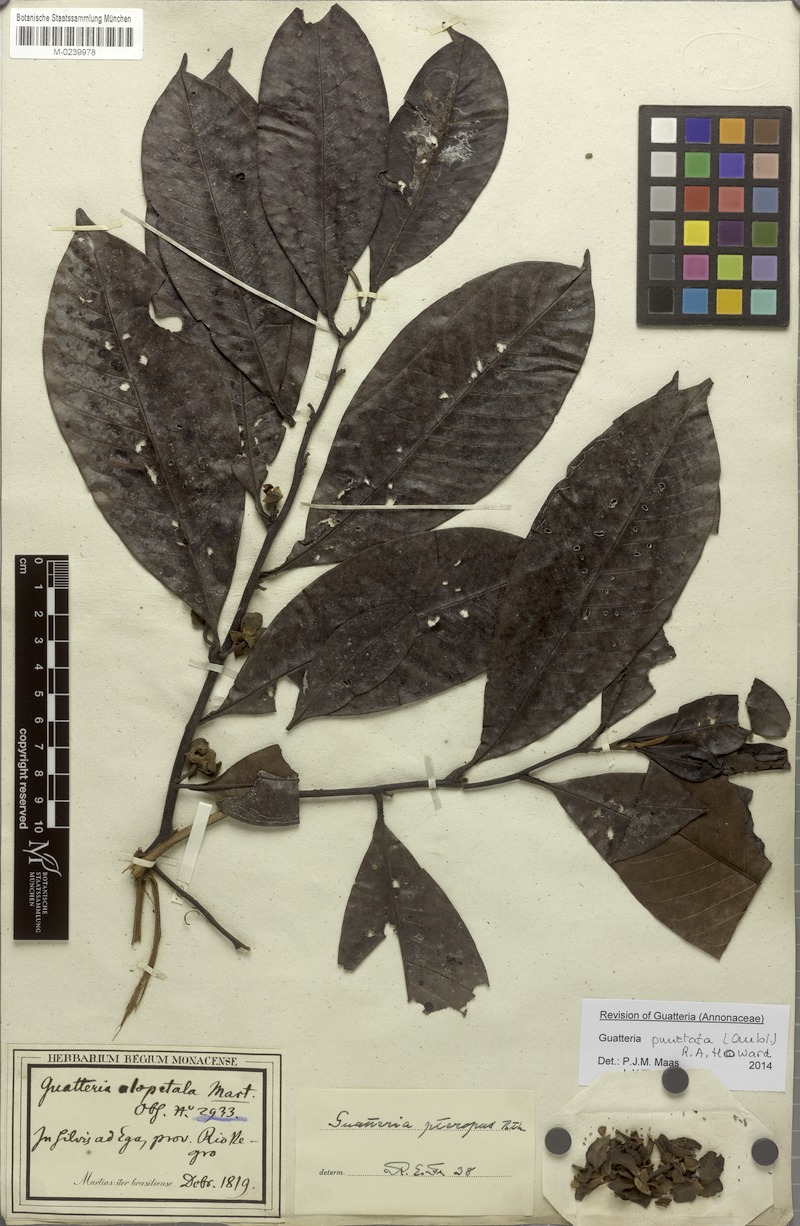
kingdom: Plantae
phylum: Tracheophyta
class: Magnoliopsida
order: Magnoliales
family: Annonaceae
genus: Guatteria
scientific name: Guatteria punctata
